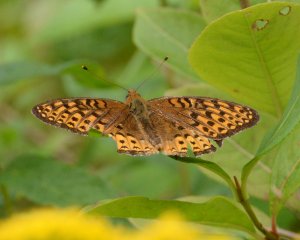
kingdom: Animalia
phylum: Arthropoda
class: Insecta
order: Lepidoptera
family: Nymphalidae
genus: Speyeria
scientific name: Speyeria atlantis
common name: Atlantis Fritillary
